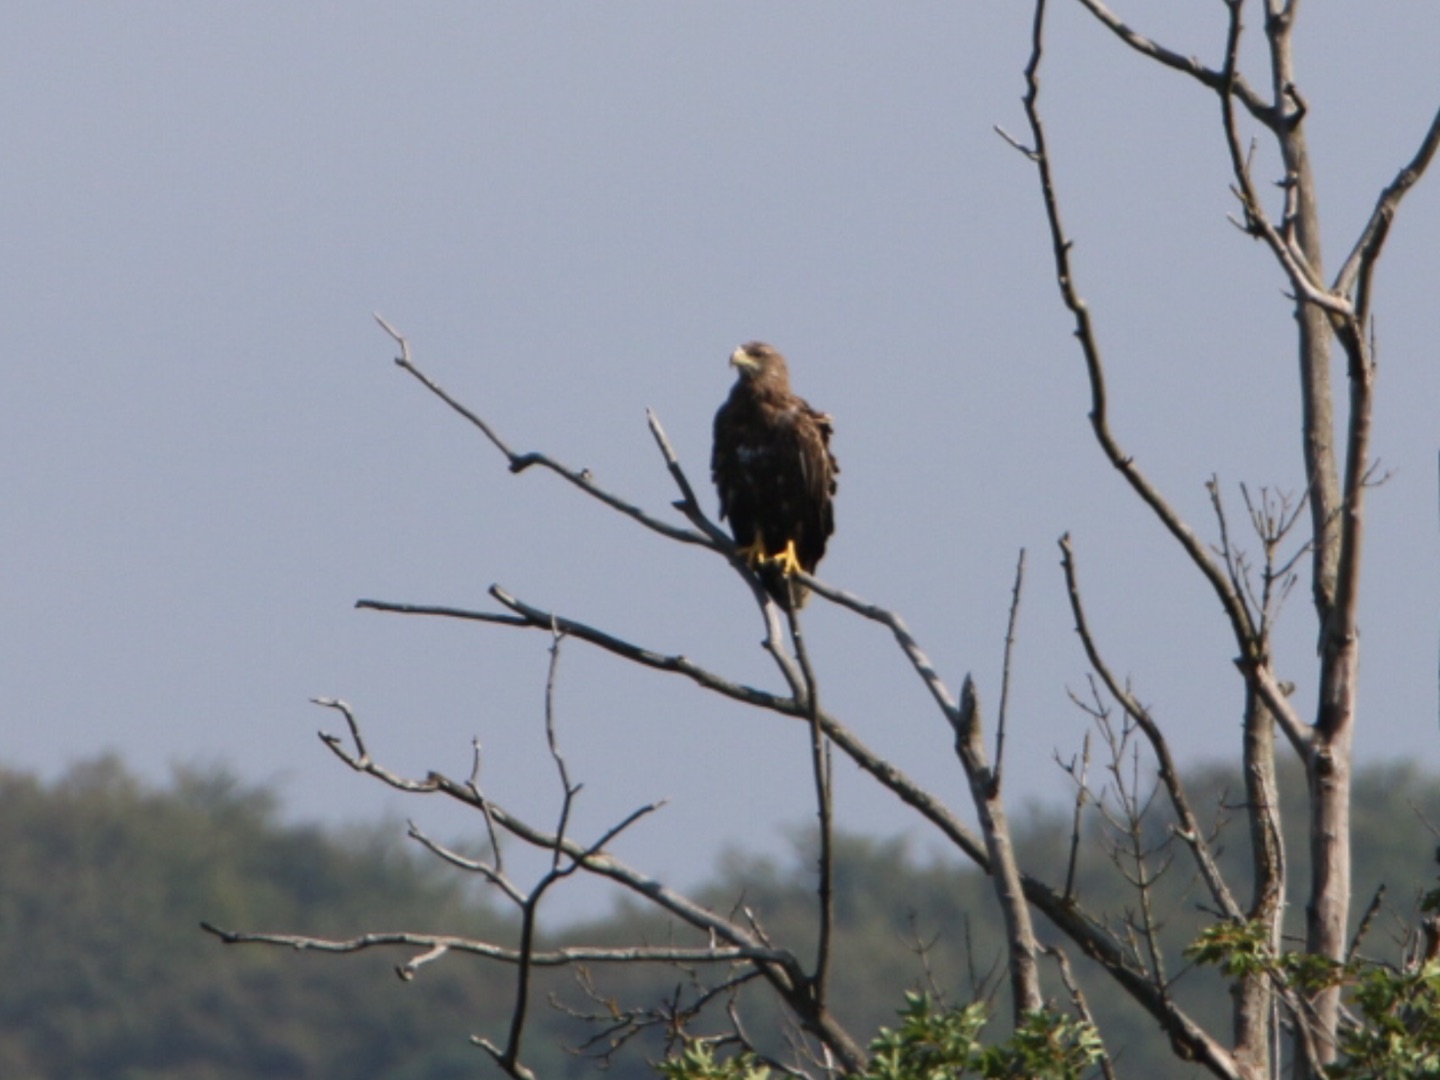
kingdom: Animalia
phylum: Chordata
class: Aves
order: Accipitriformes
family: Accipitridae
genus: Haliaeetus
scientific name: Haliaeetus albicilla
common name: Havørn
